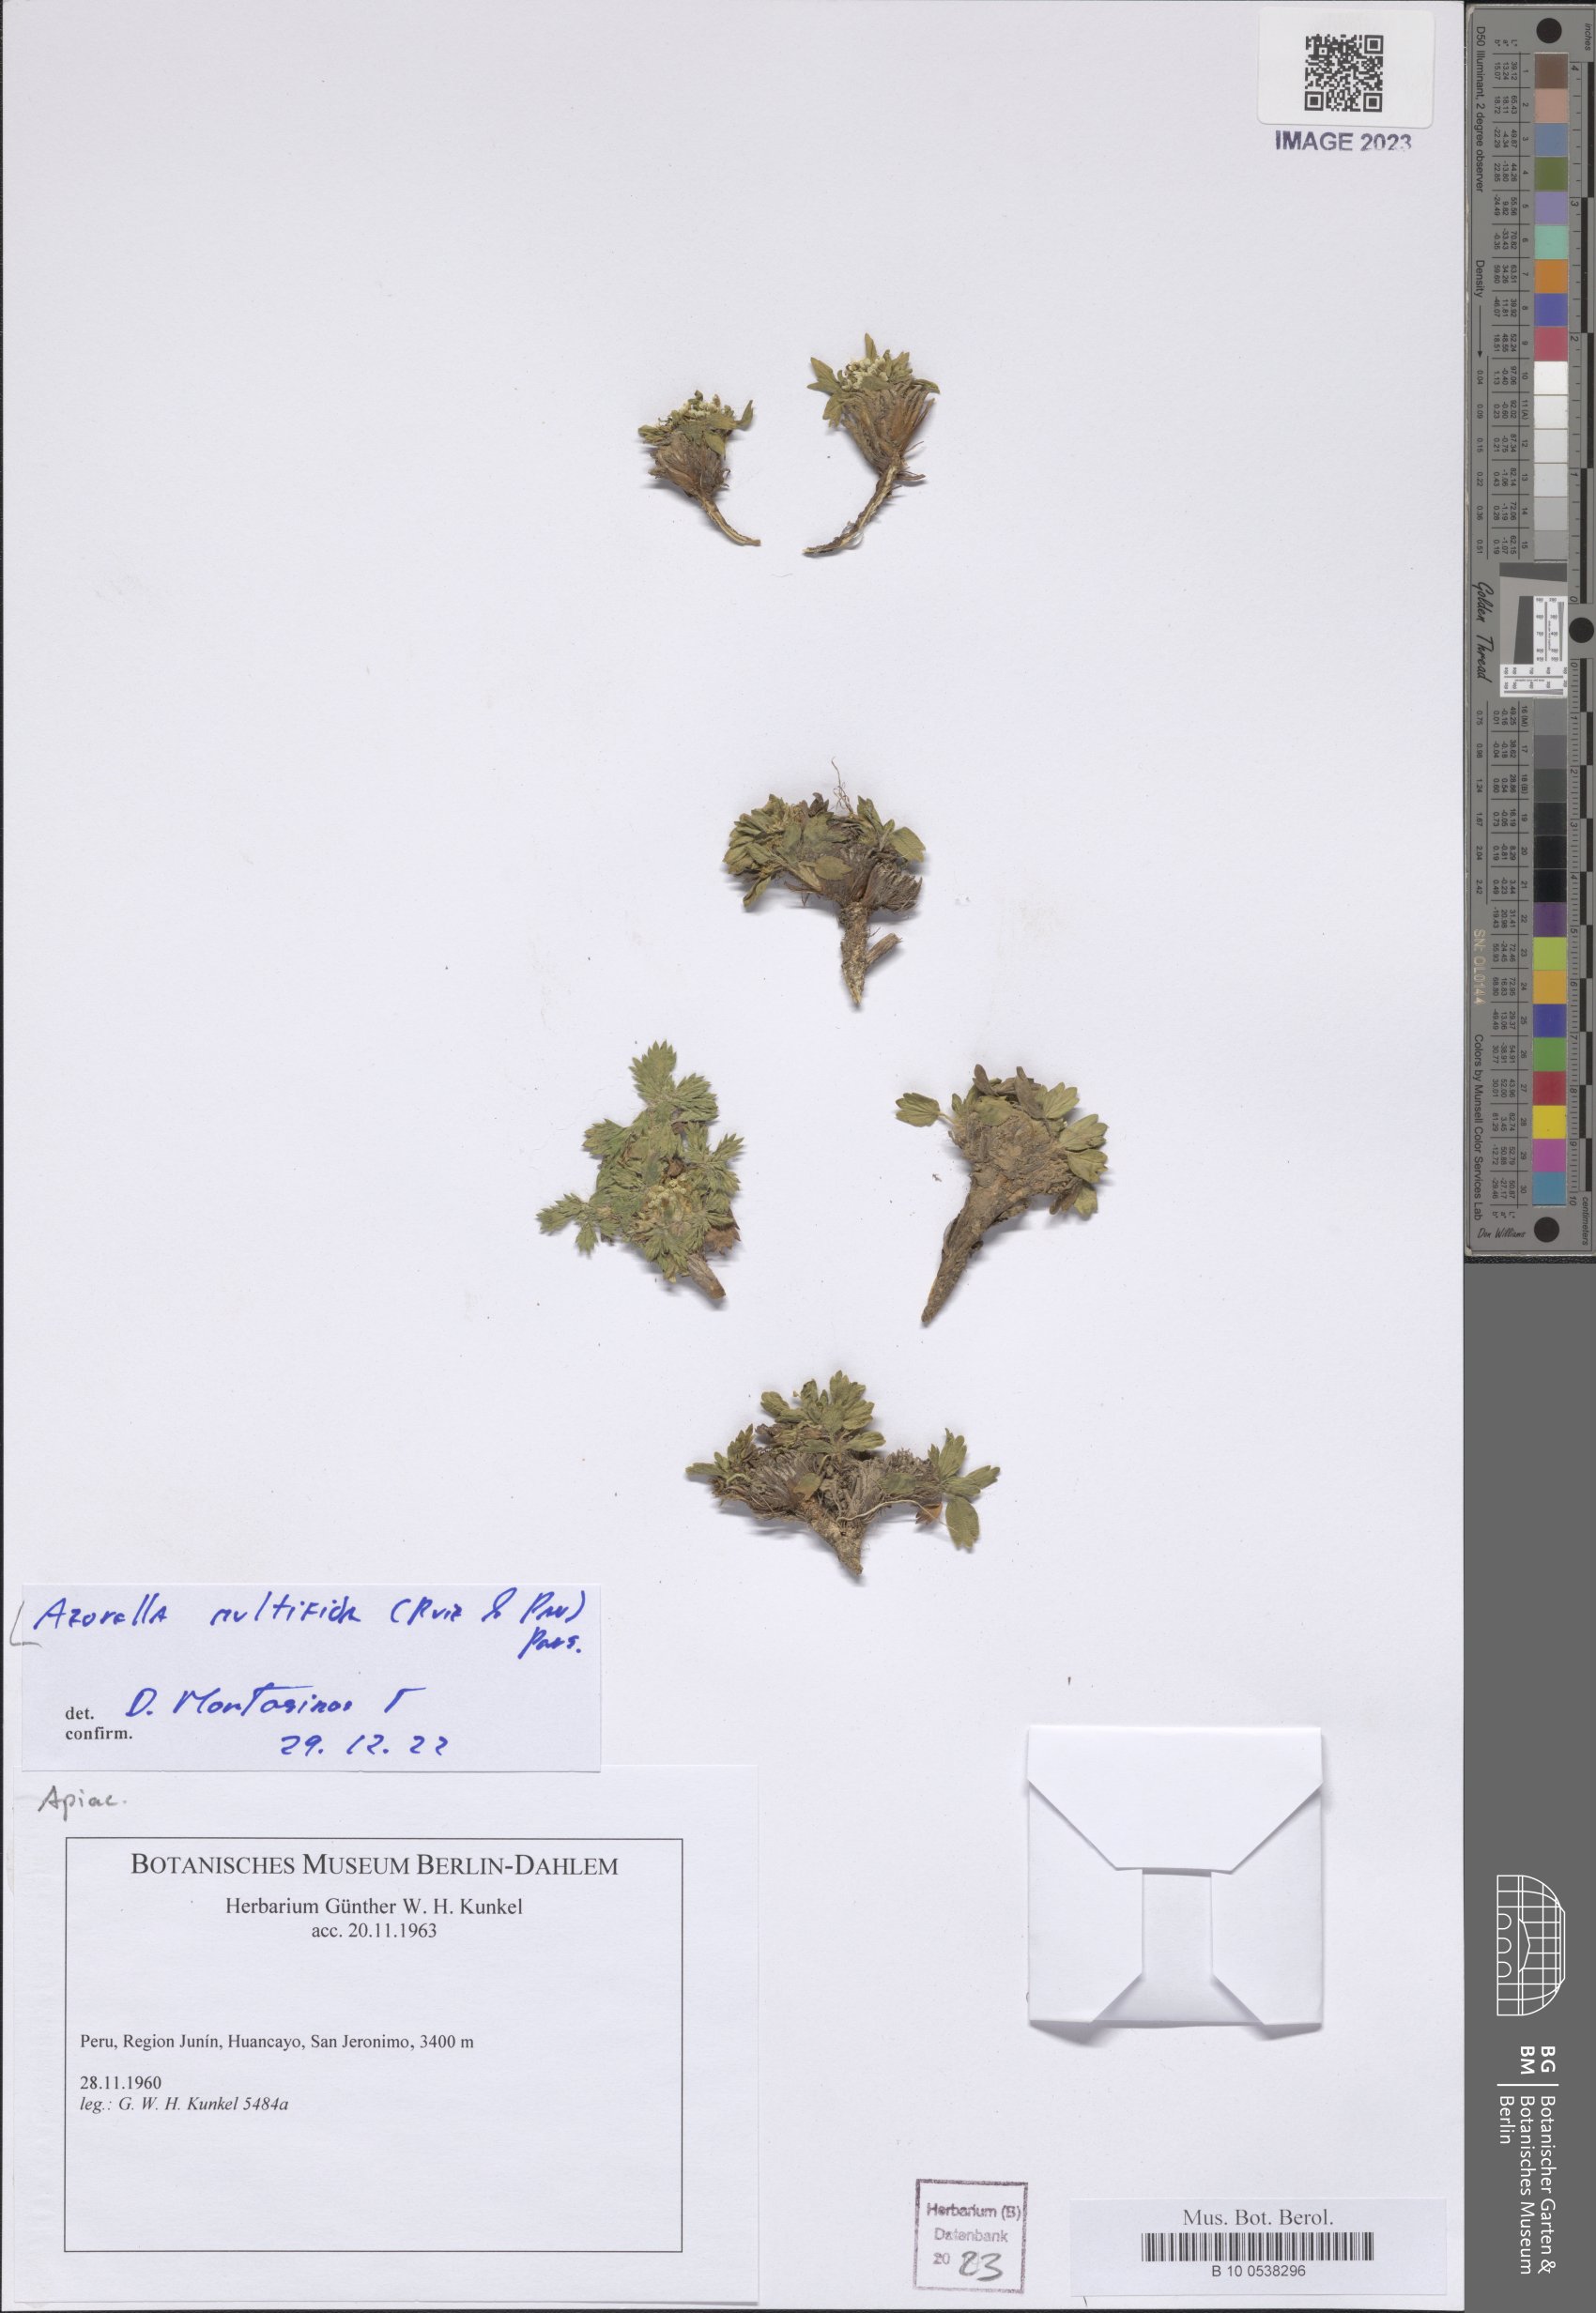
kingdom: Plantae
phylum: Tracheophyta
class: Magnoliopsida
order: Apiales
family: Apiaceae
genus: Azorella
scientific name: Azorella multifida
